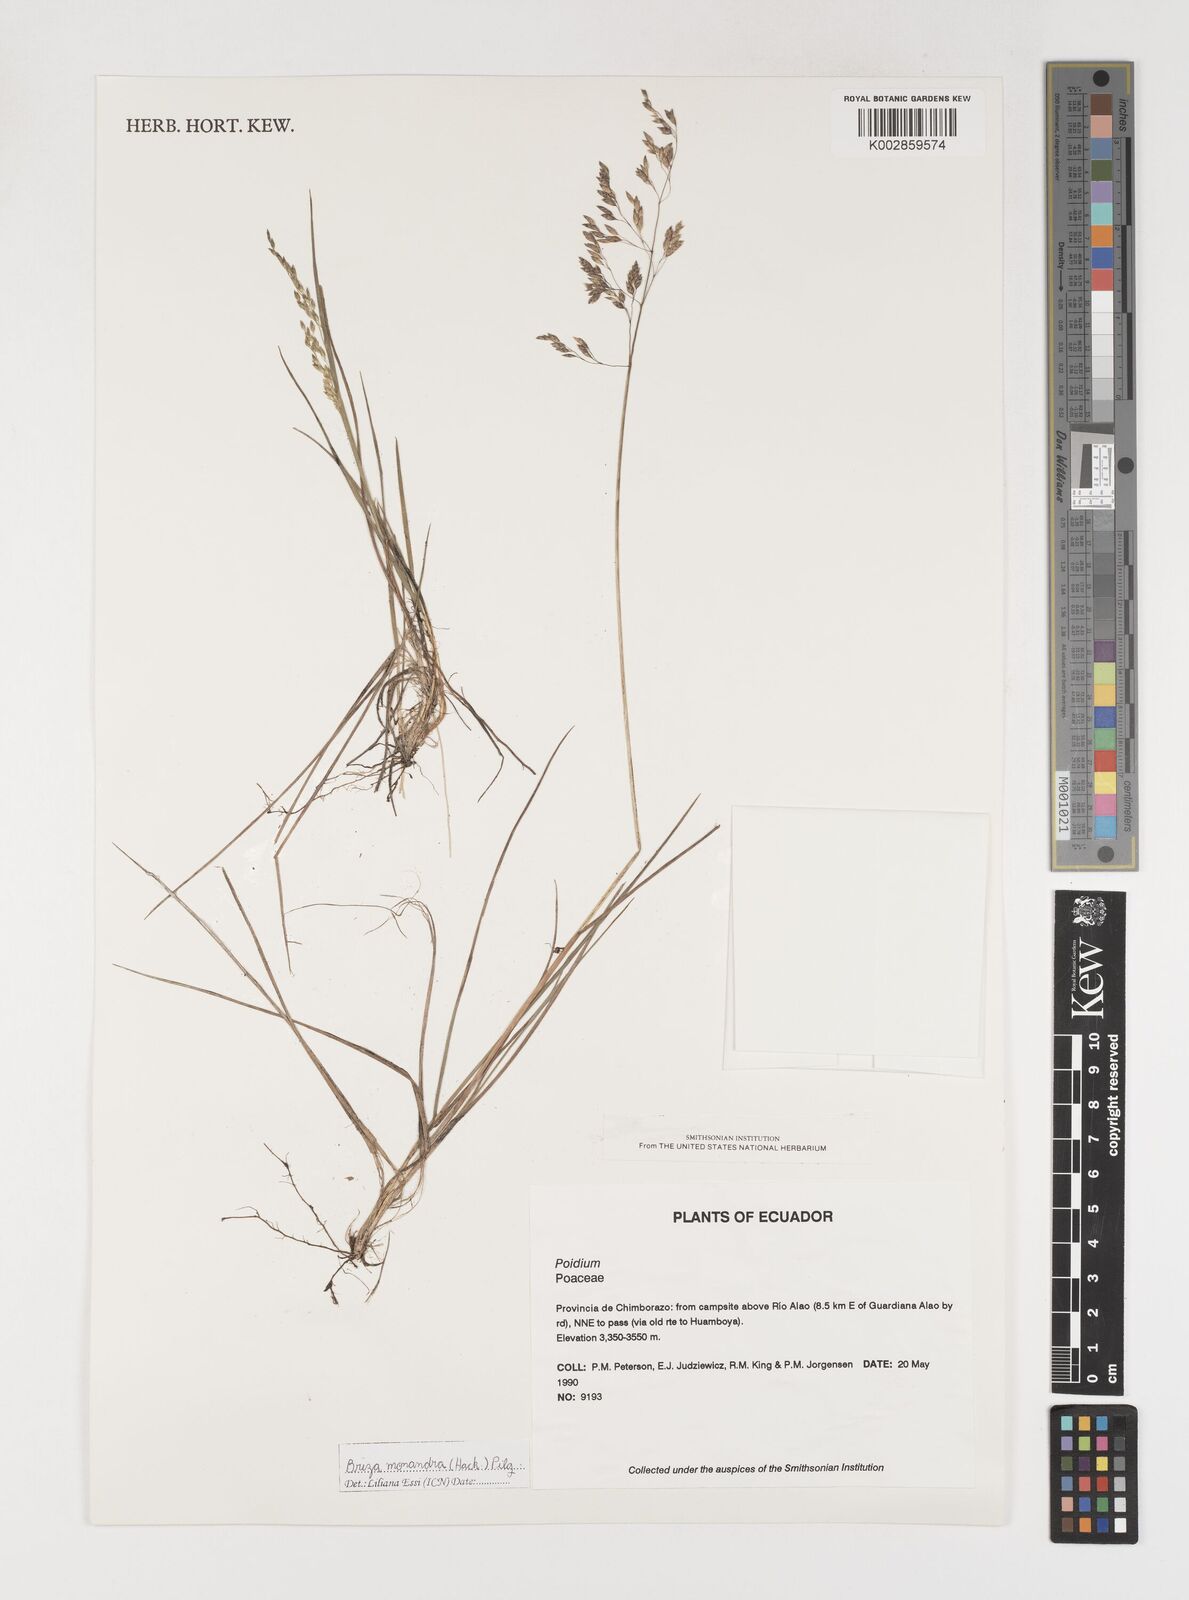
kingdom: Plantae
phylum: Tracheophyta
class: Liliopsida
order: Poales
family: Poaceae
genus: Poidium
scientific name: Poidium monandrum
